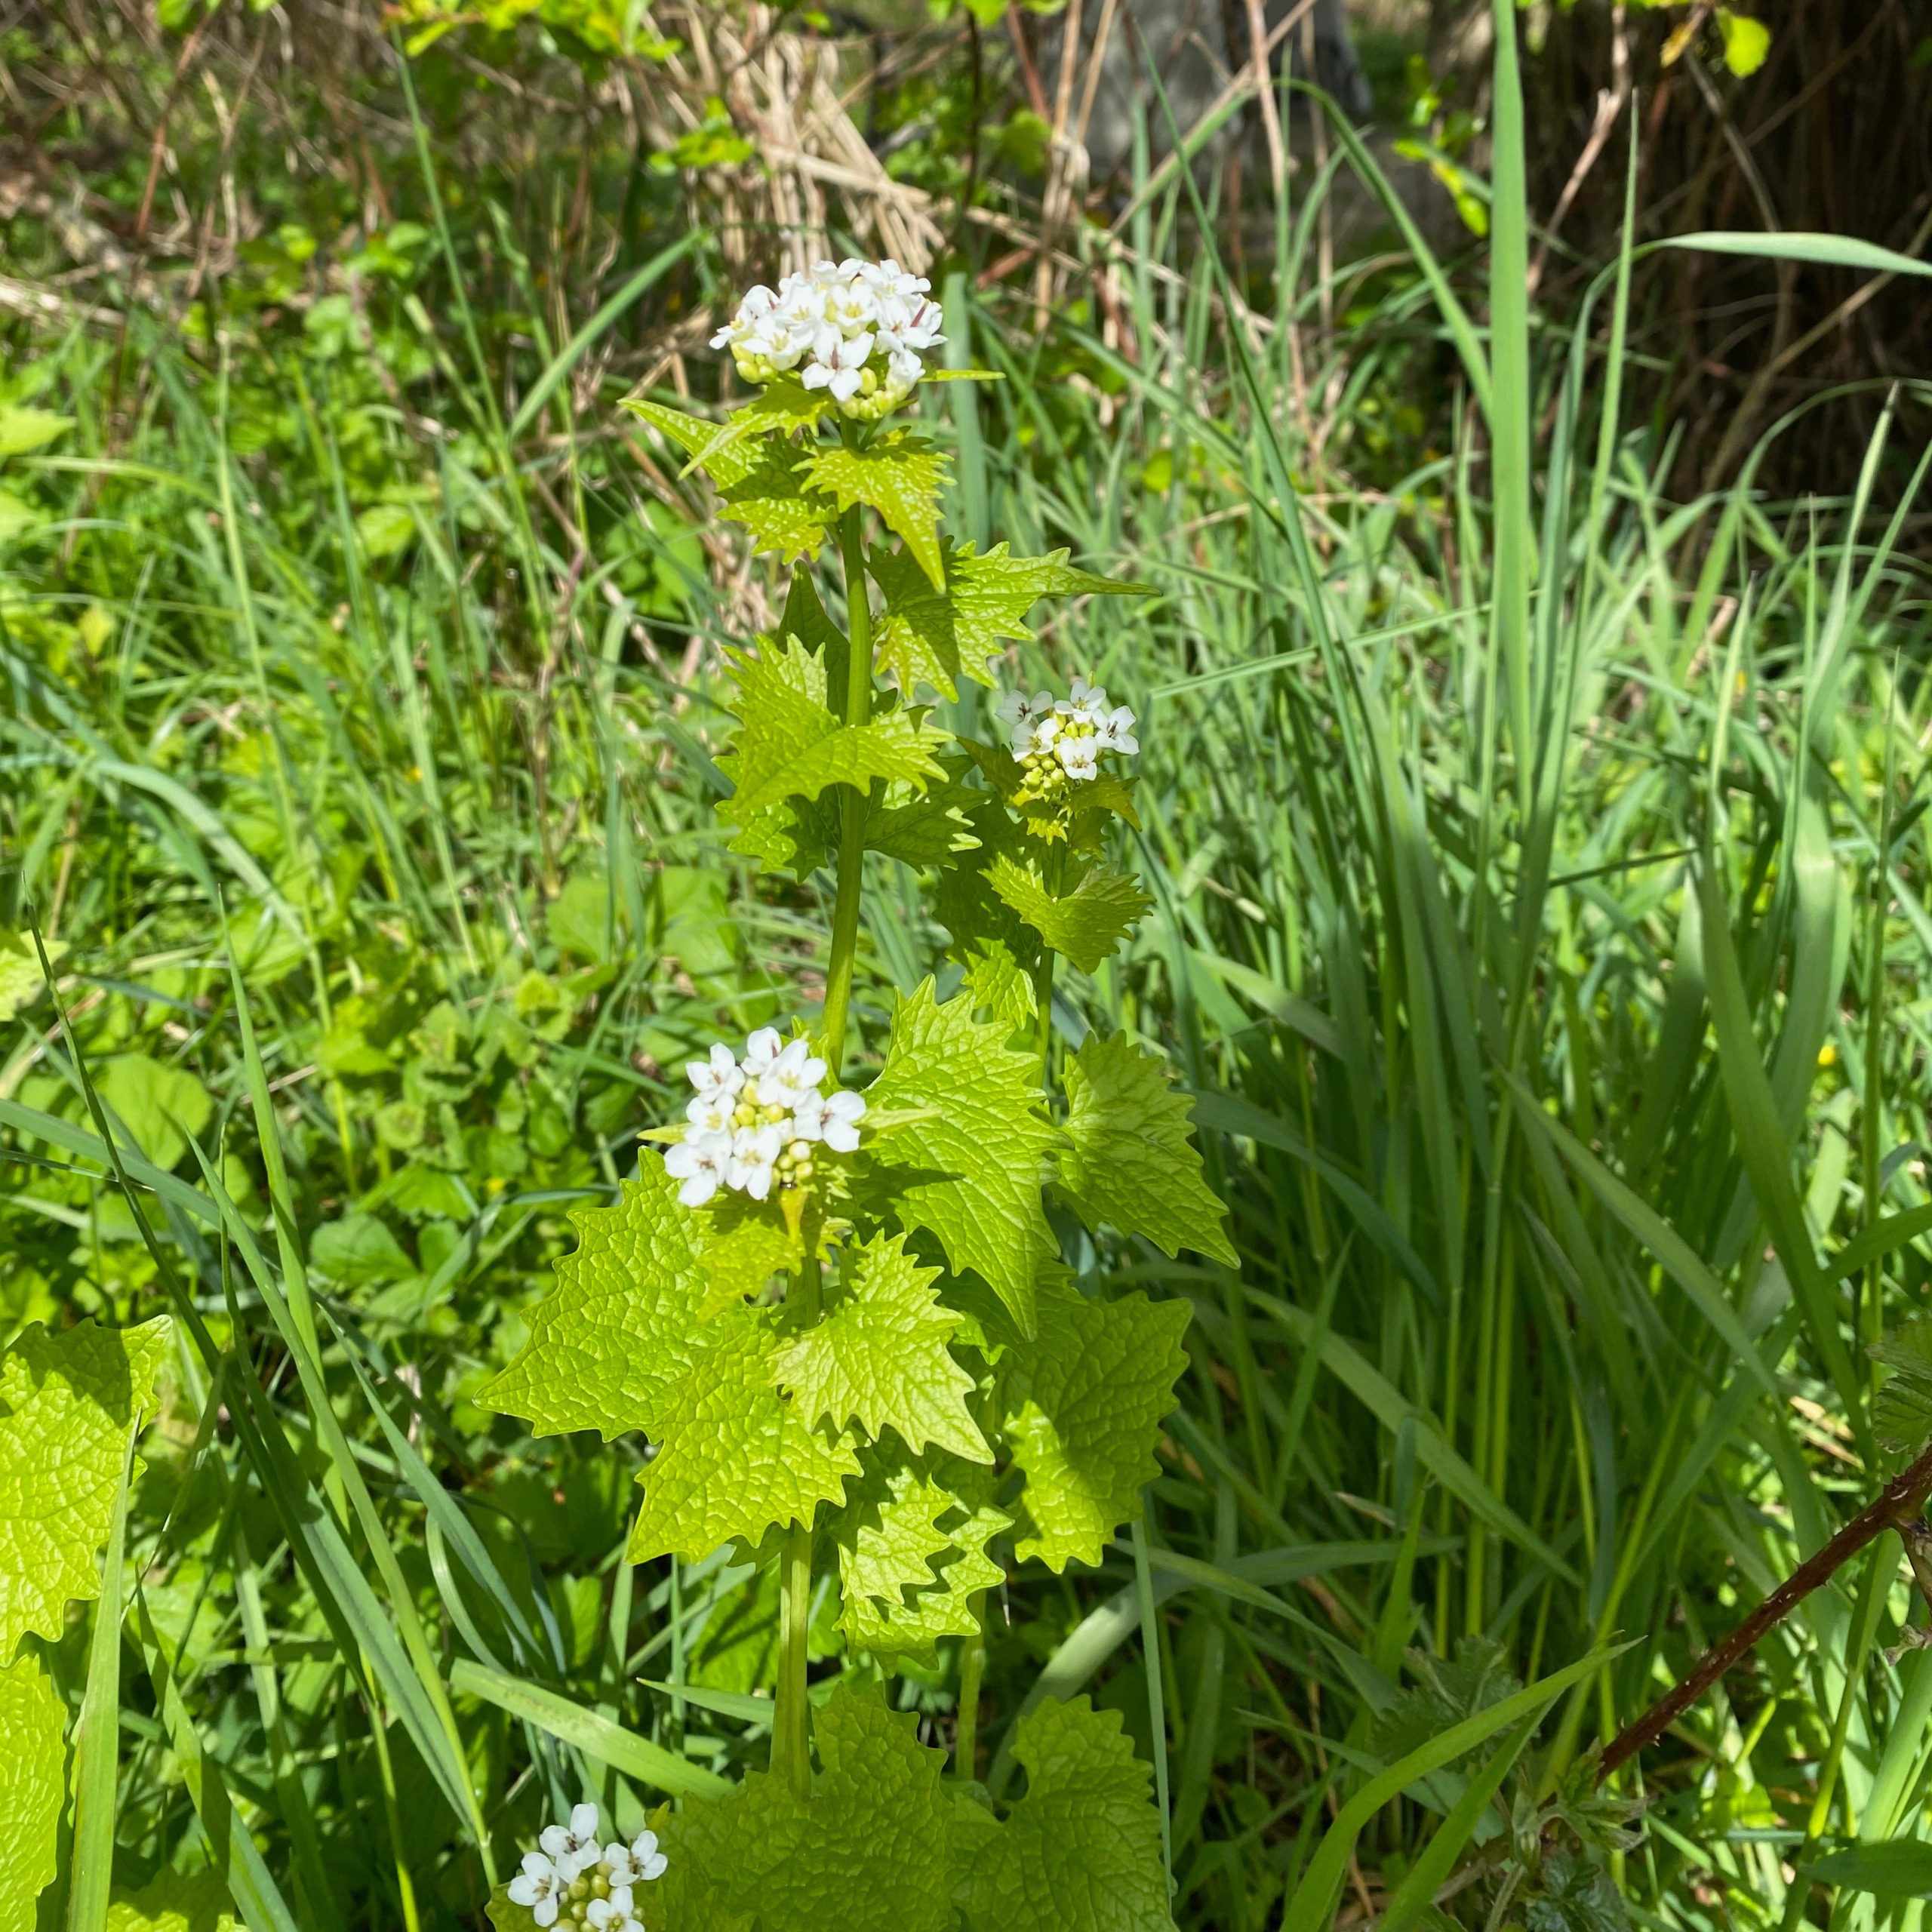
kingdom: Plantae
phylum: Tracheophyta
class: Magnoliopsida
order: Brassicales
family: Brassicaceae
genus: Alliaria
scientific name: Alliaria petiolata
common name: Løgkarse
